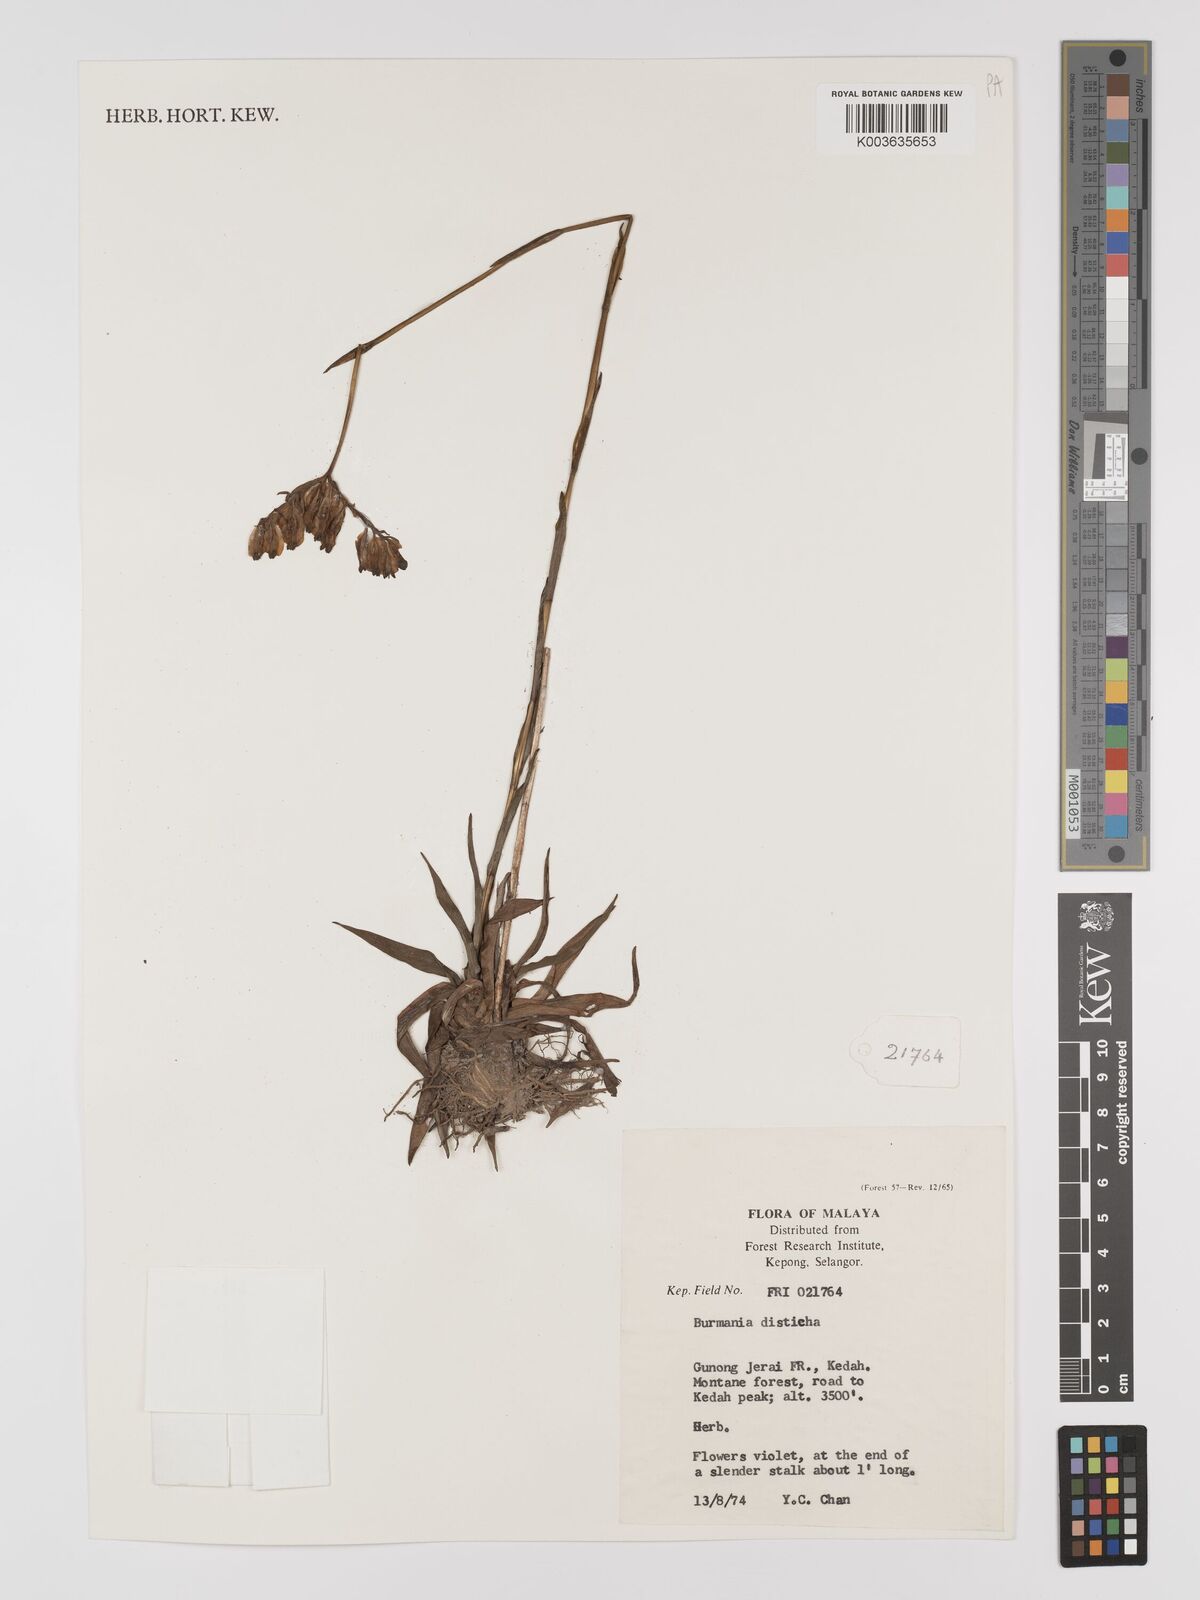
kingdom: Plantae
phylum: Tracheophyta
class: Liliopsida
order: Dioscoreales
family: Burmanniaceae
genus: Burmannia
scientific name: Burmannia disticha
